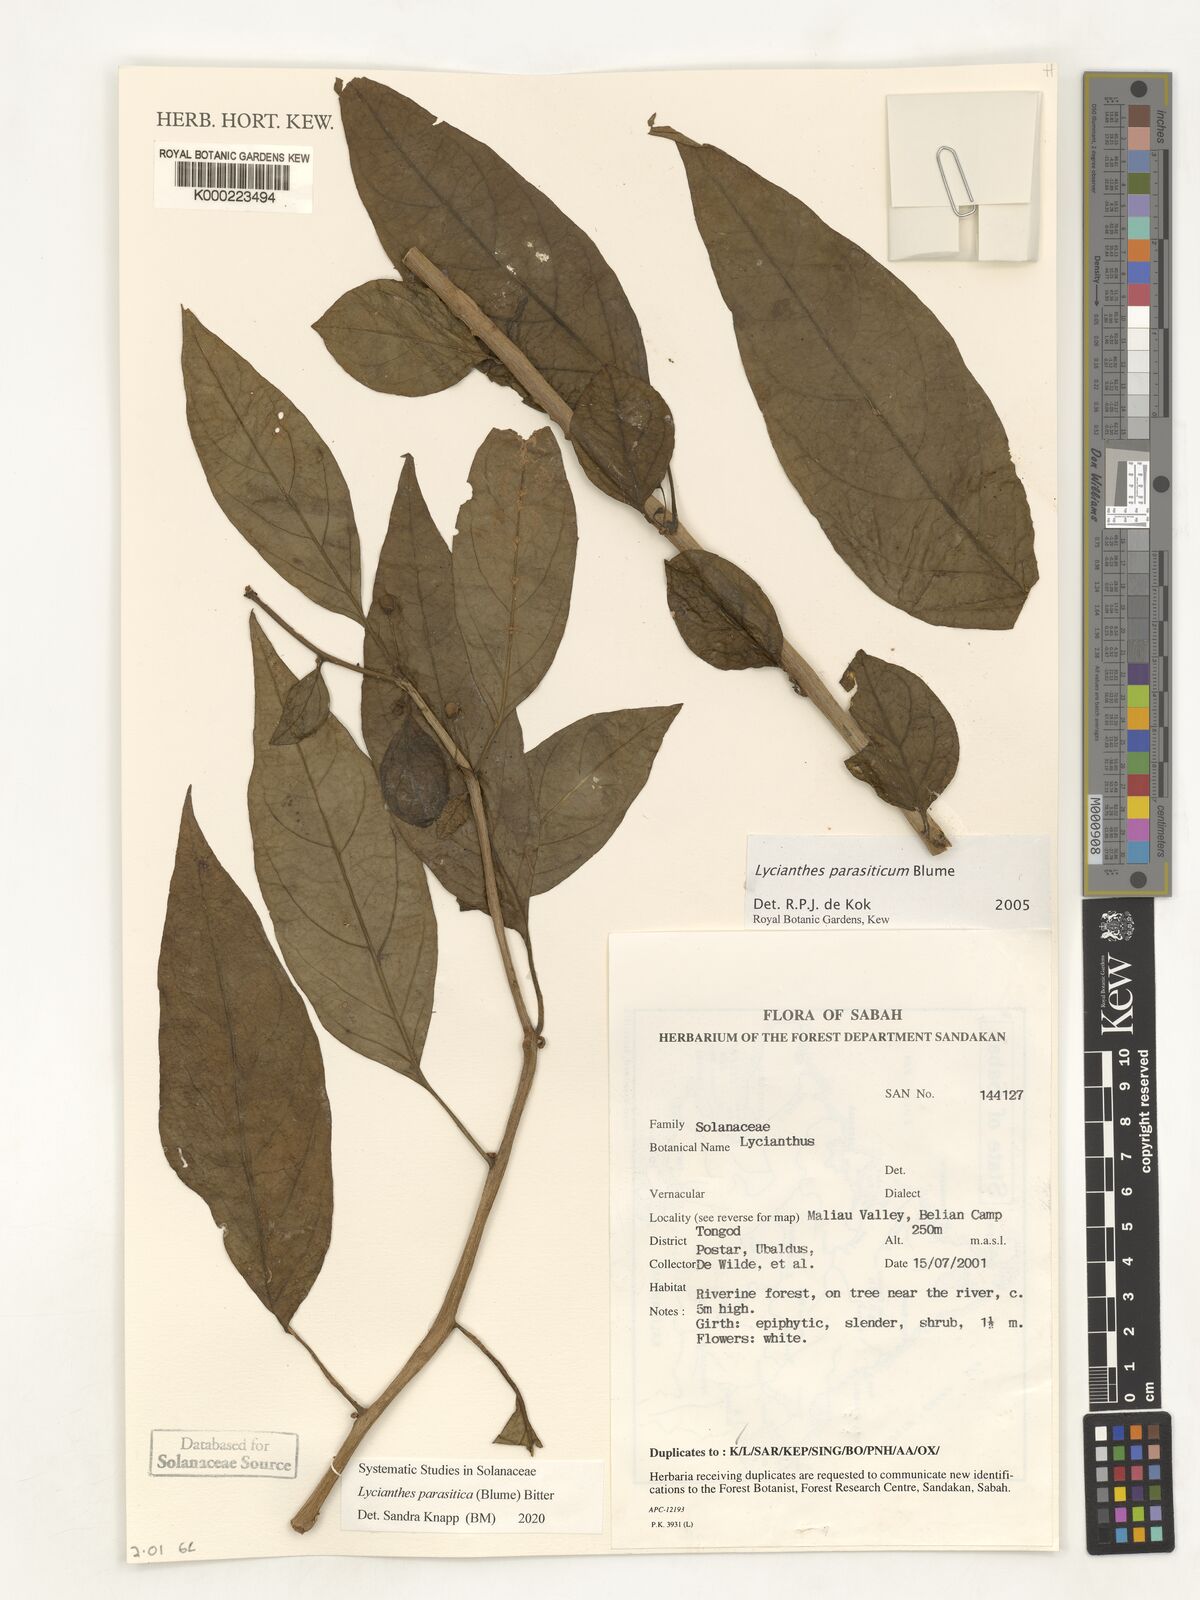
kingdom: Plantae
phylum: Tracheophyta
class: Magnoliopsida
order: Solanales
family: Solanaceae
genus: Lycianthes
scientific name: Lycianthes parasitica
